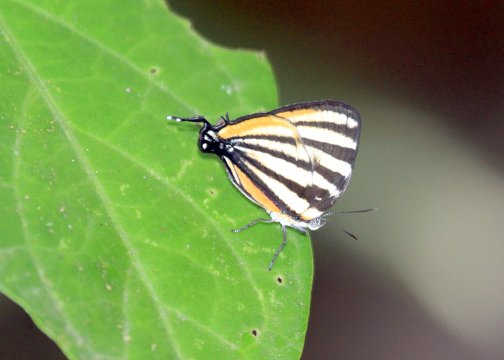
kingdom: Animalia
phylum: Arthropoda
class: Insecta
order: Lepidoptera
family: Lycaenidae
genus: Arawacus
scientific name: Arawacus togarna
